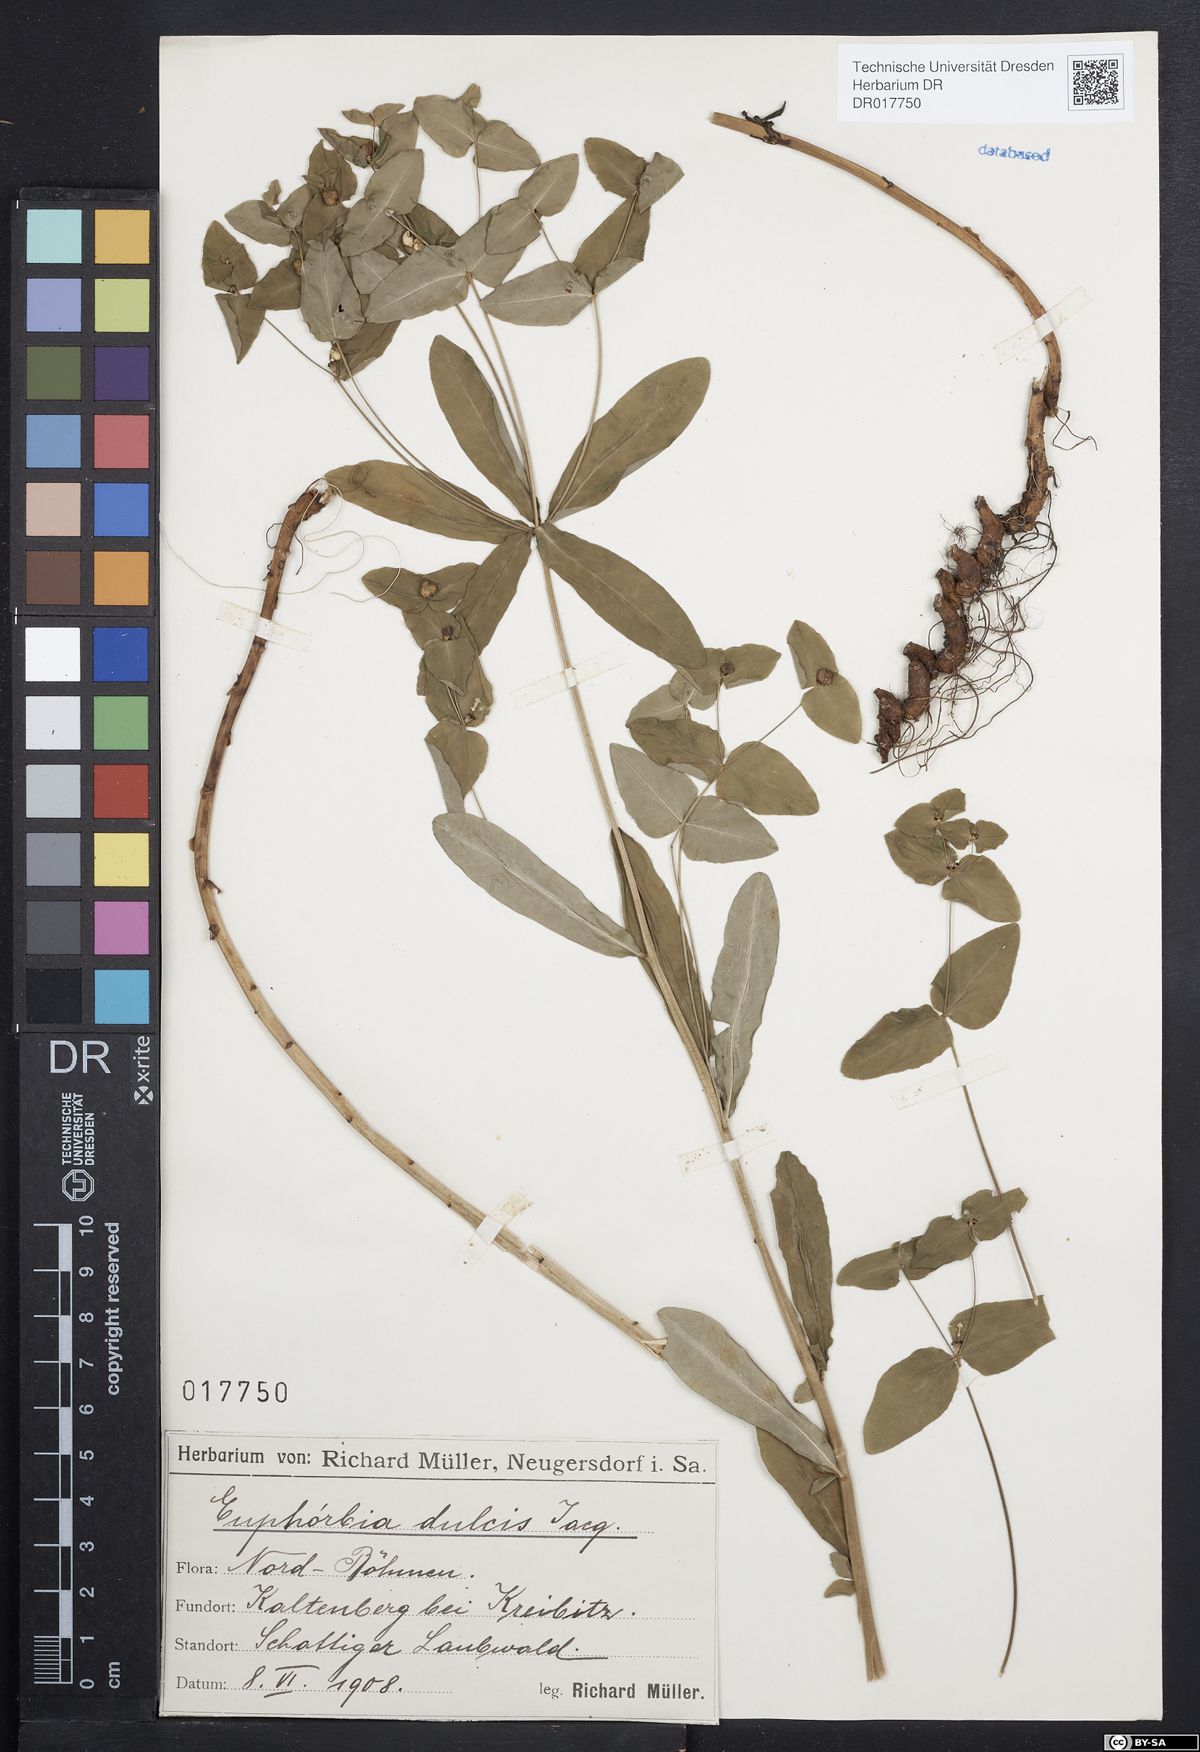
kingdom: Plantae
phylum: Tracheophyta
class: Magnoliopsida
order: Malpighiales
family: Euphorbiaceae
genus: Euphorbia
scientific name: Euphorbia dulcis
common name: Sweet spurge
